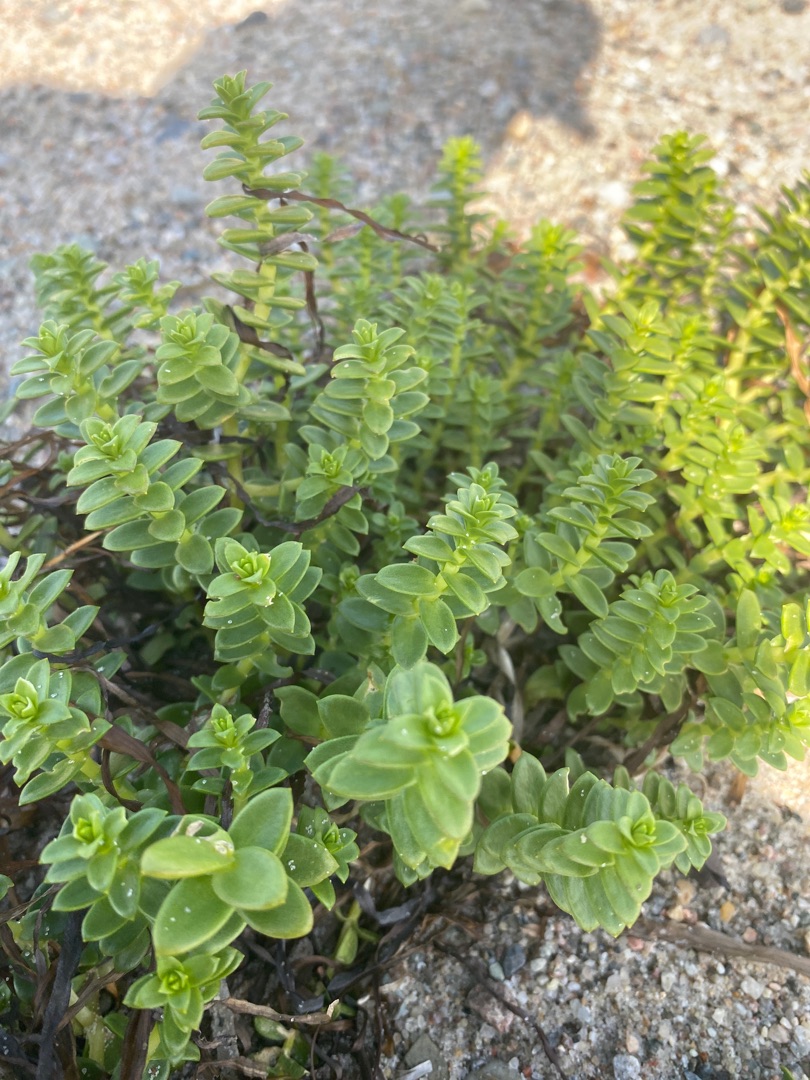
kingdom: Plantae
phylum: Tracheophyta
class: Magnoliopsida
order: Caryophyllales
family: Caryophyllaceae
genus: Honckenya
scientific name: Honckenya peploides
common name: Strandarve
